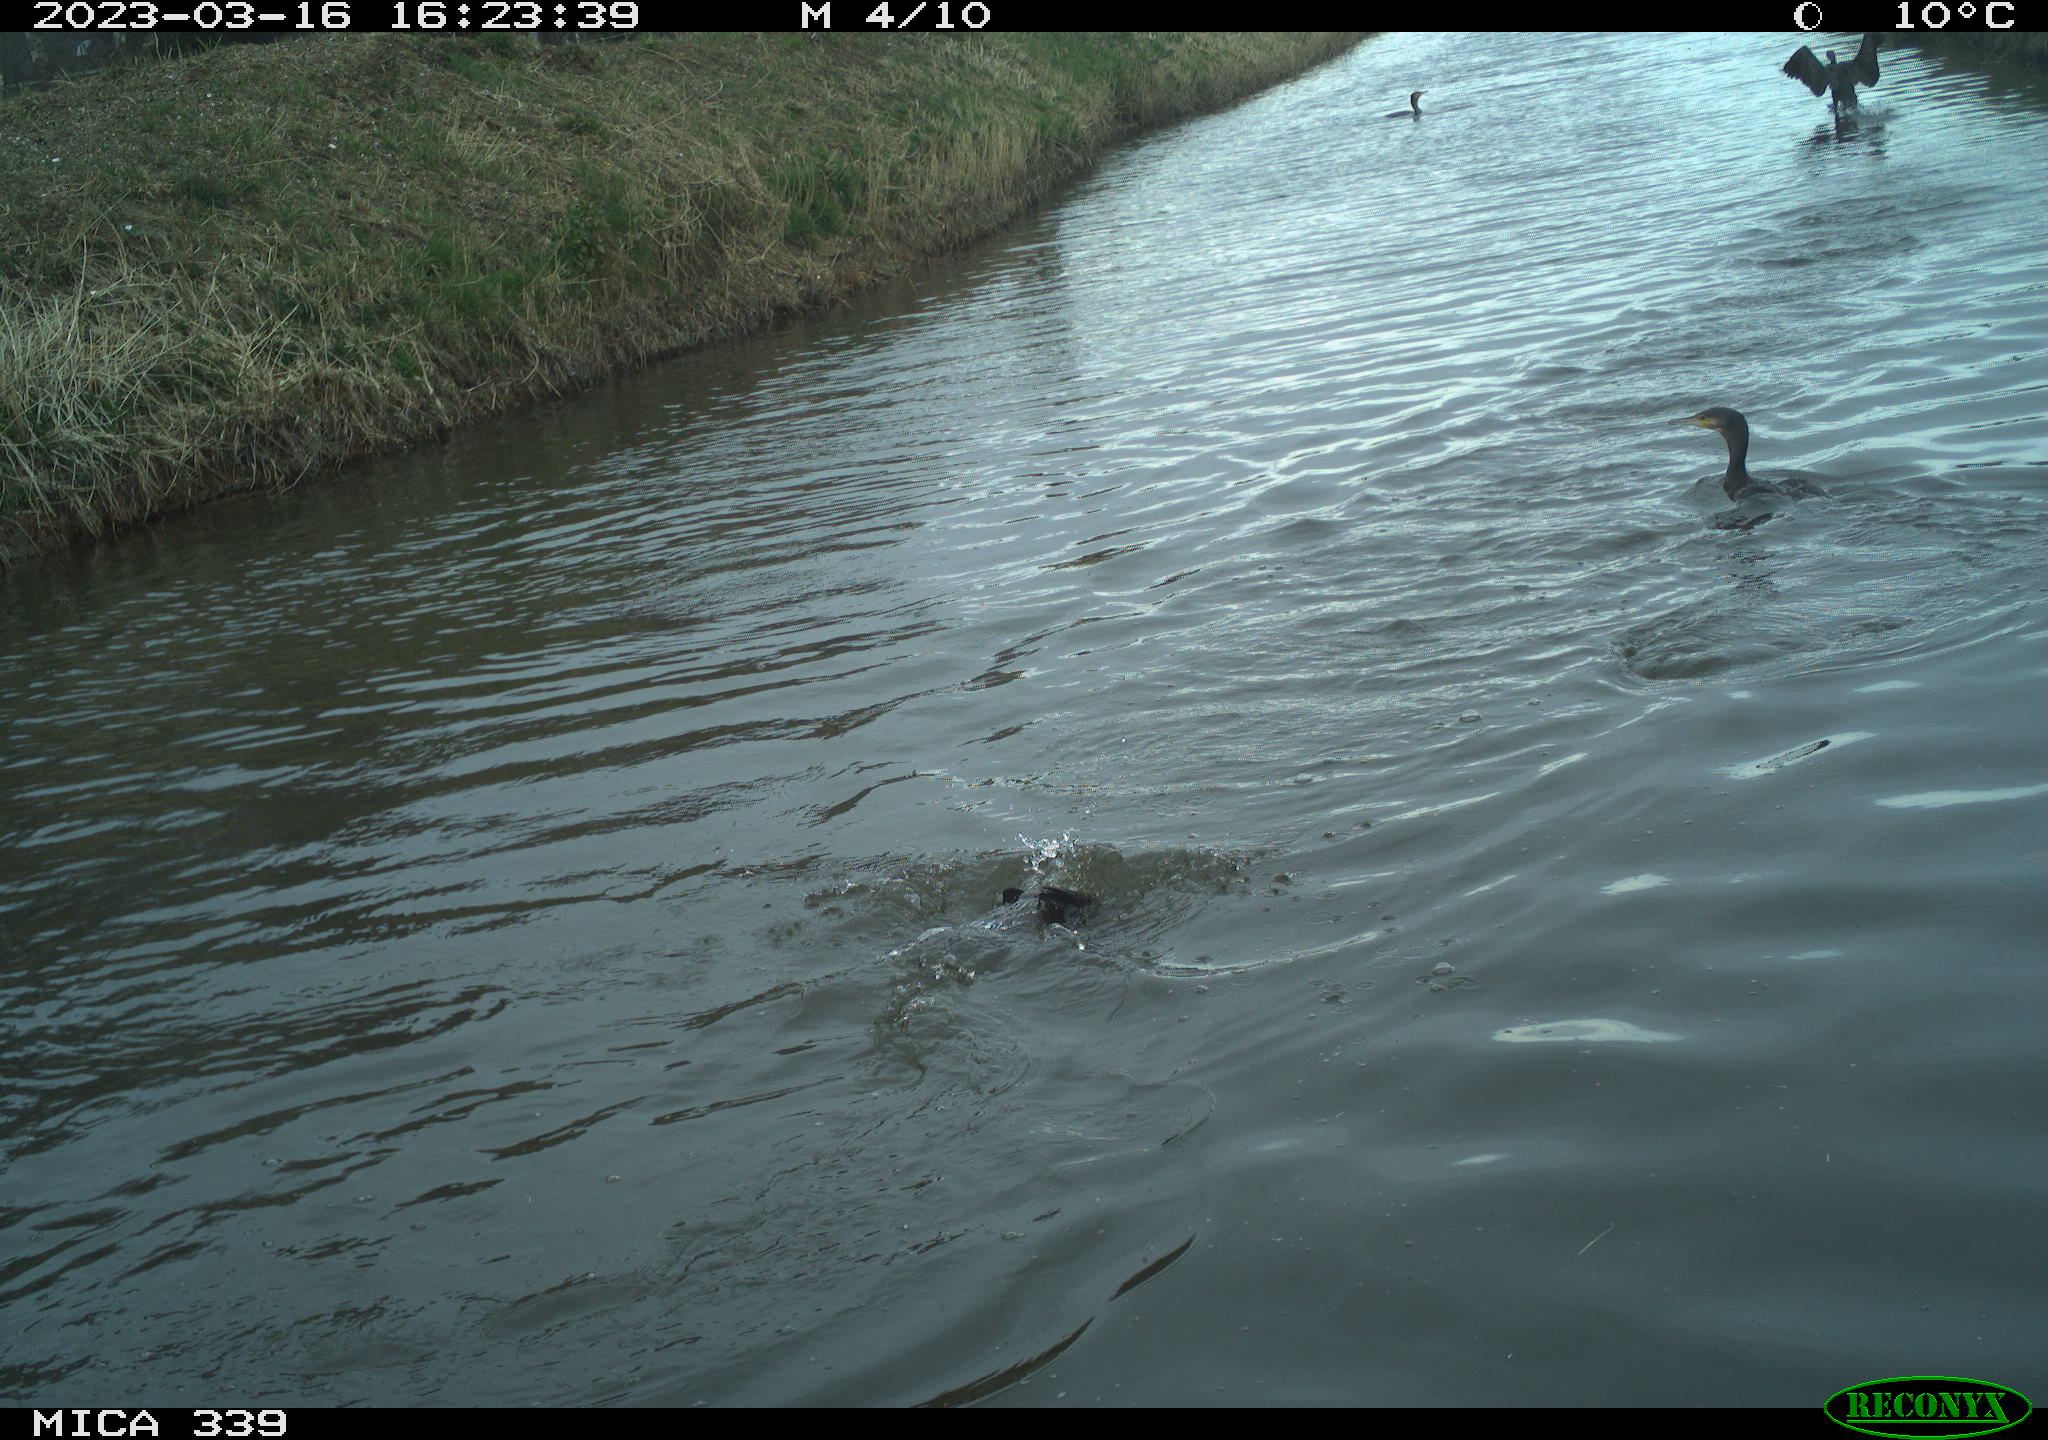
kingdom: Animalia
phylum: Chordata
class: Aves
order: Pelecaniformes
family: Ardeidae
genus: Ardea
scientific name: Ardea
